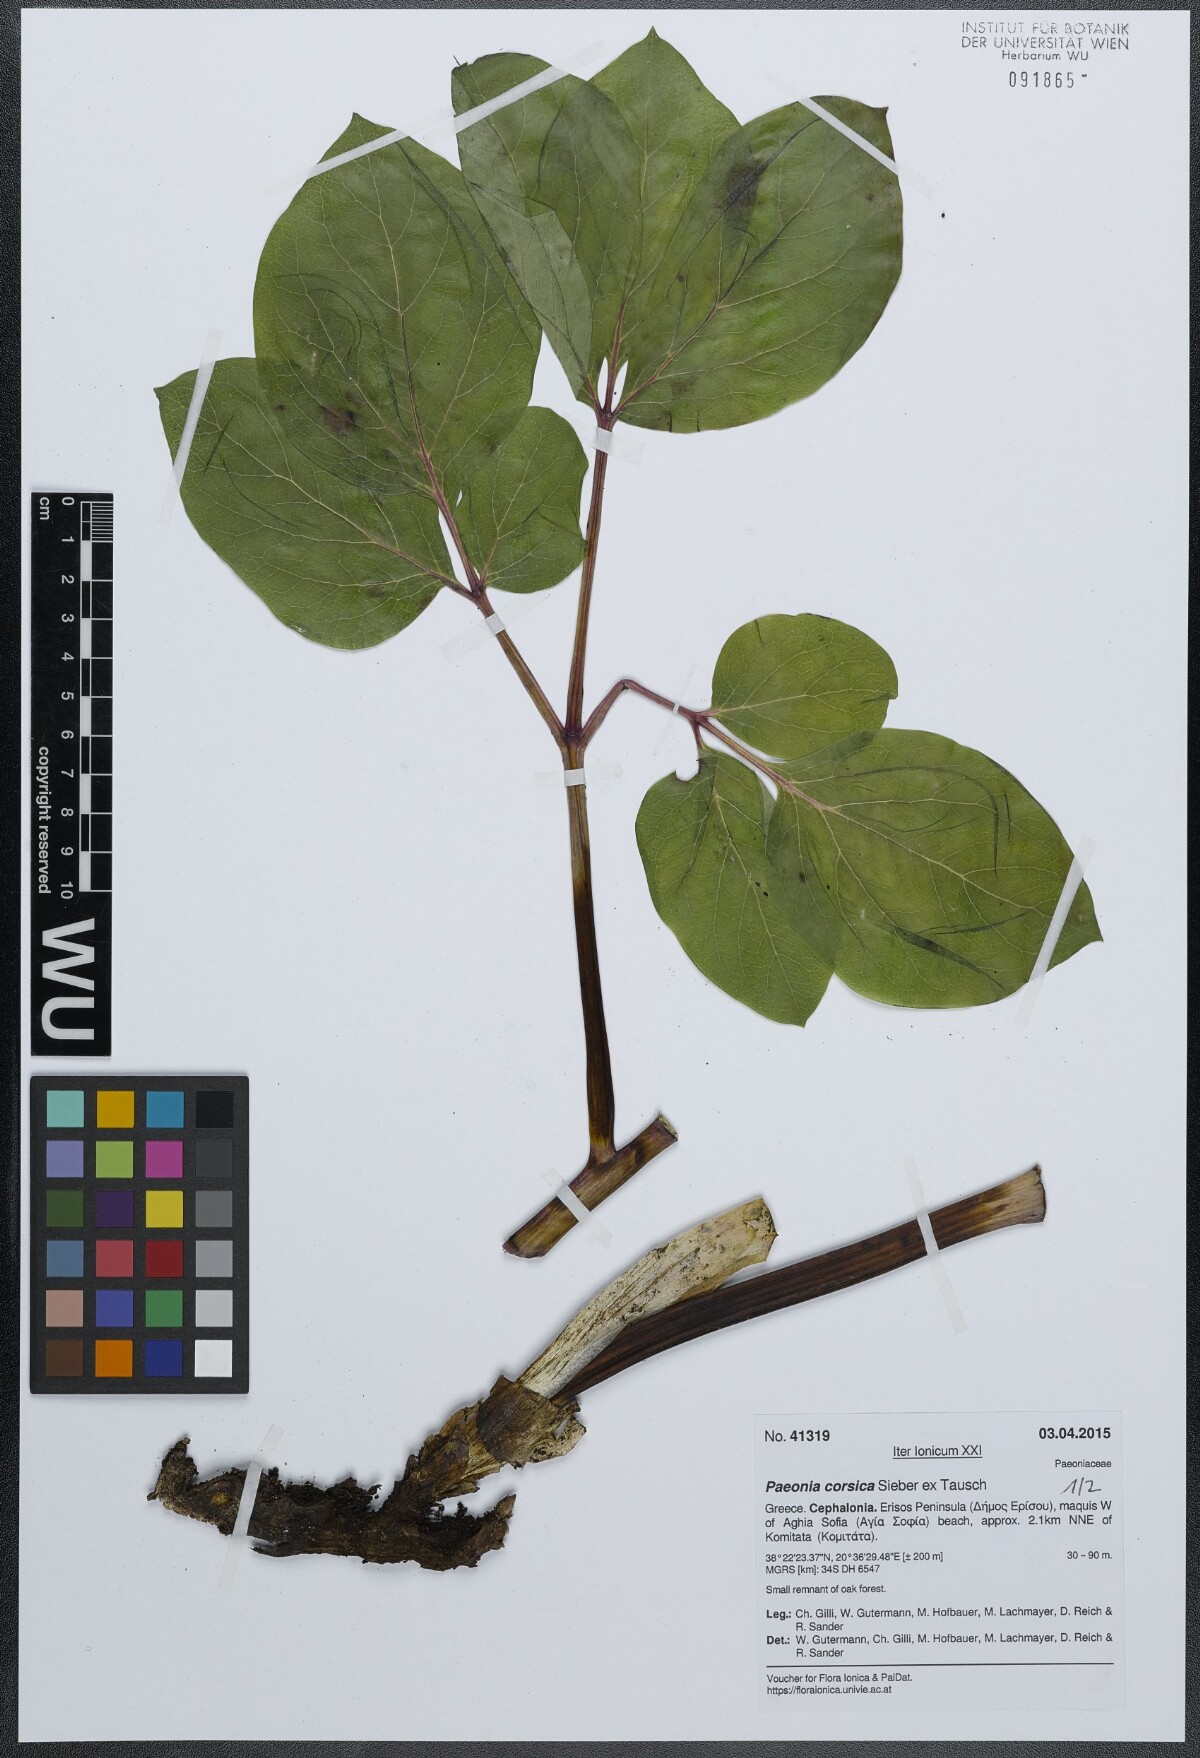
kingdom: Plantae
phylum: Tracheophyta
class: Magnoliopsida
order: Saxifragales
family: Paeoniaceae
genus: Paeonia
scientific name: Paeonia corsica
